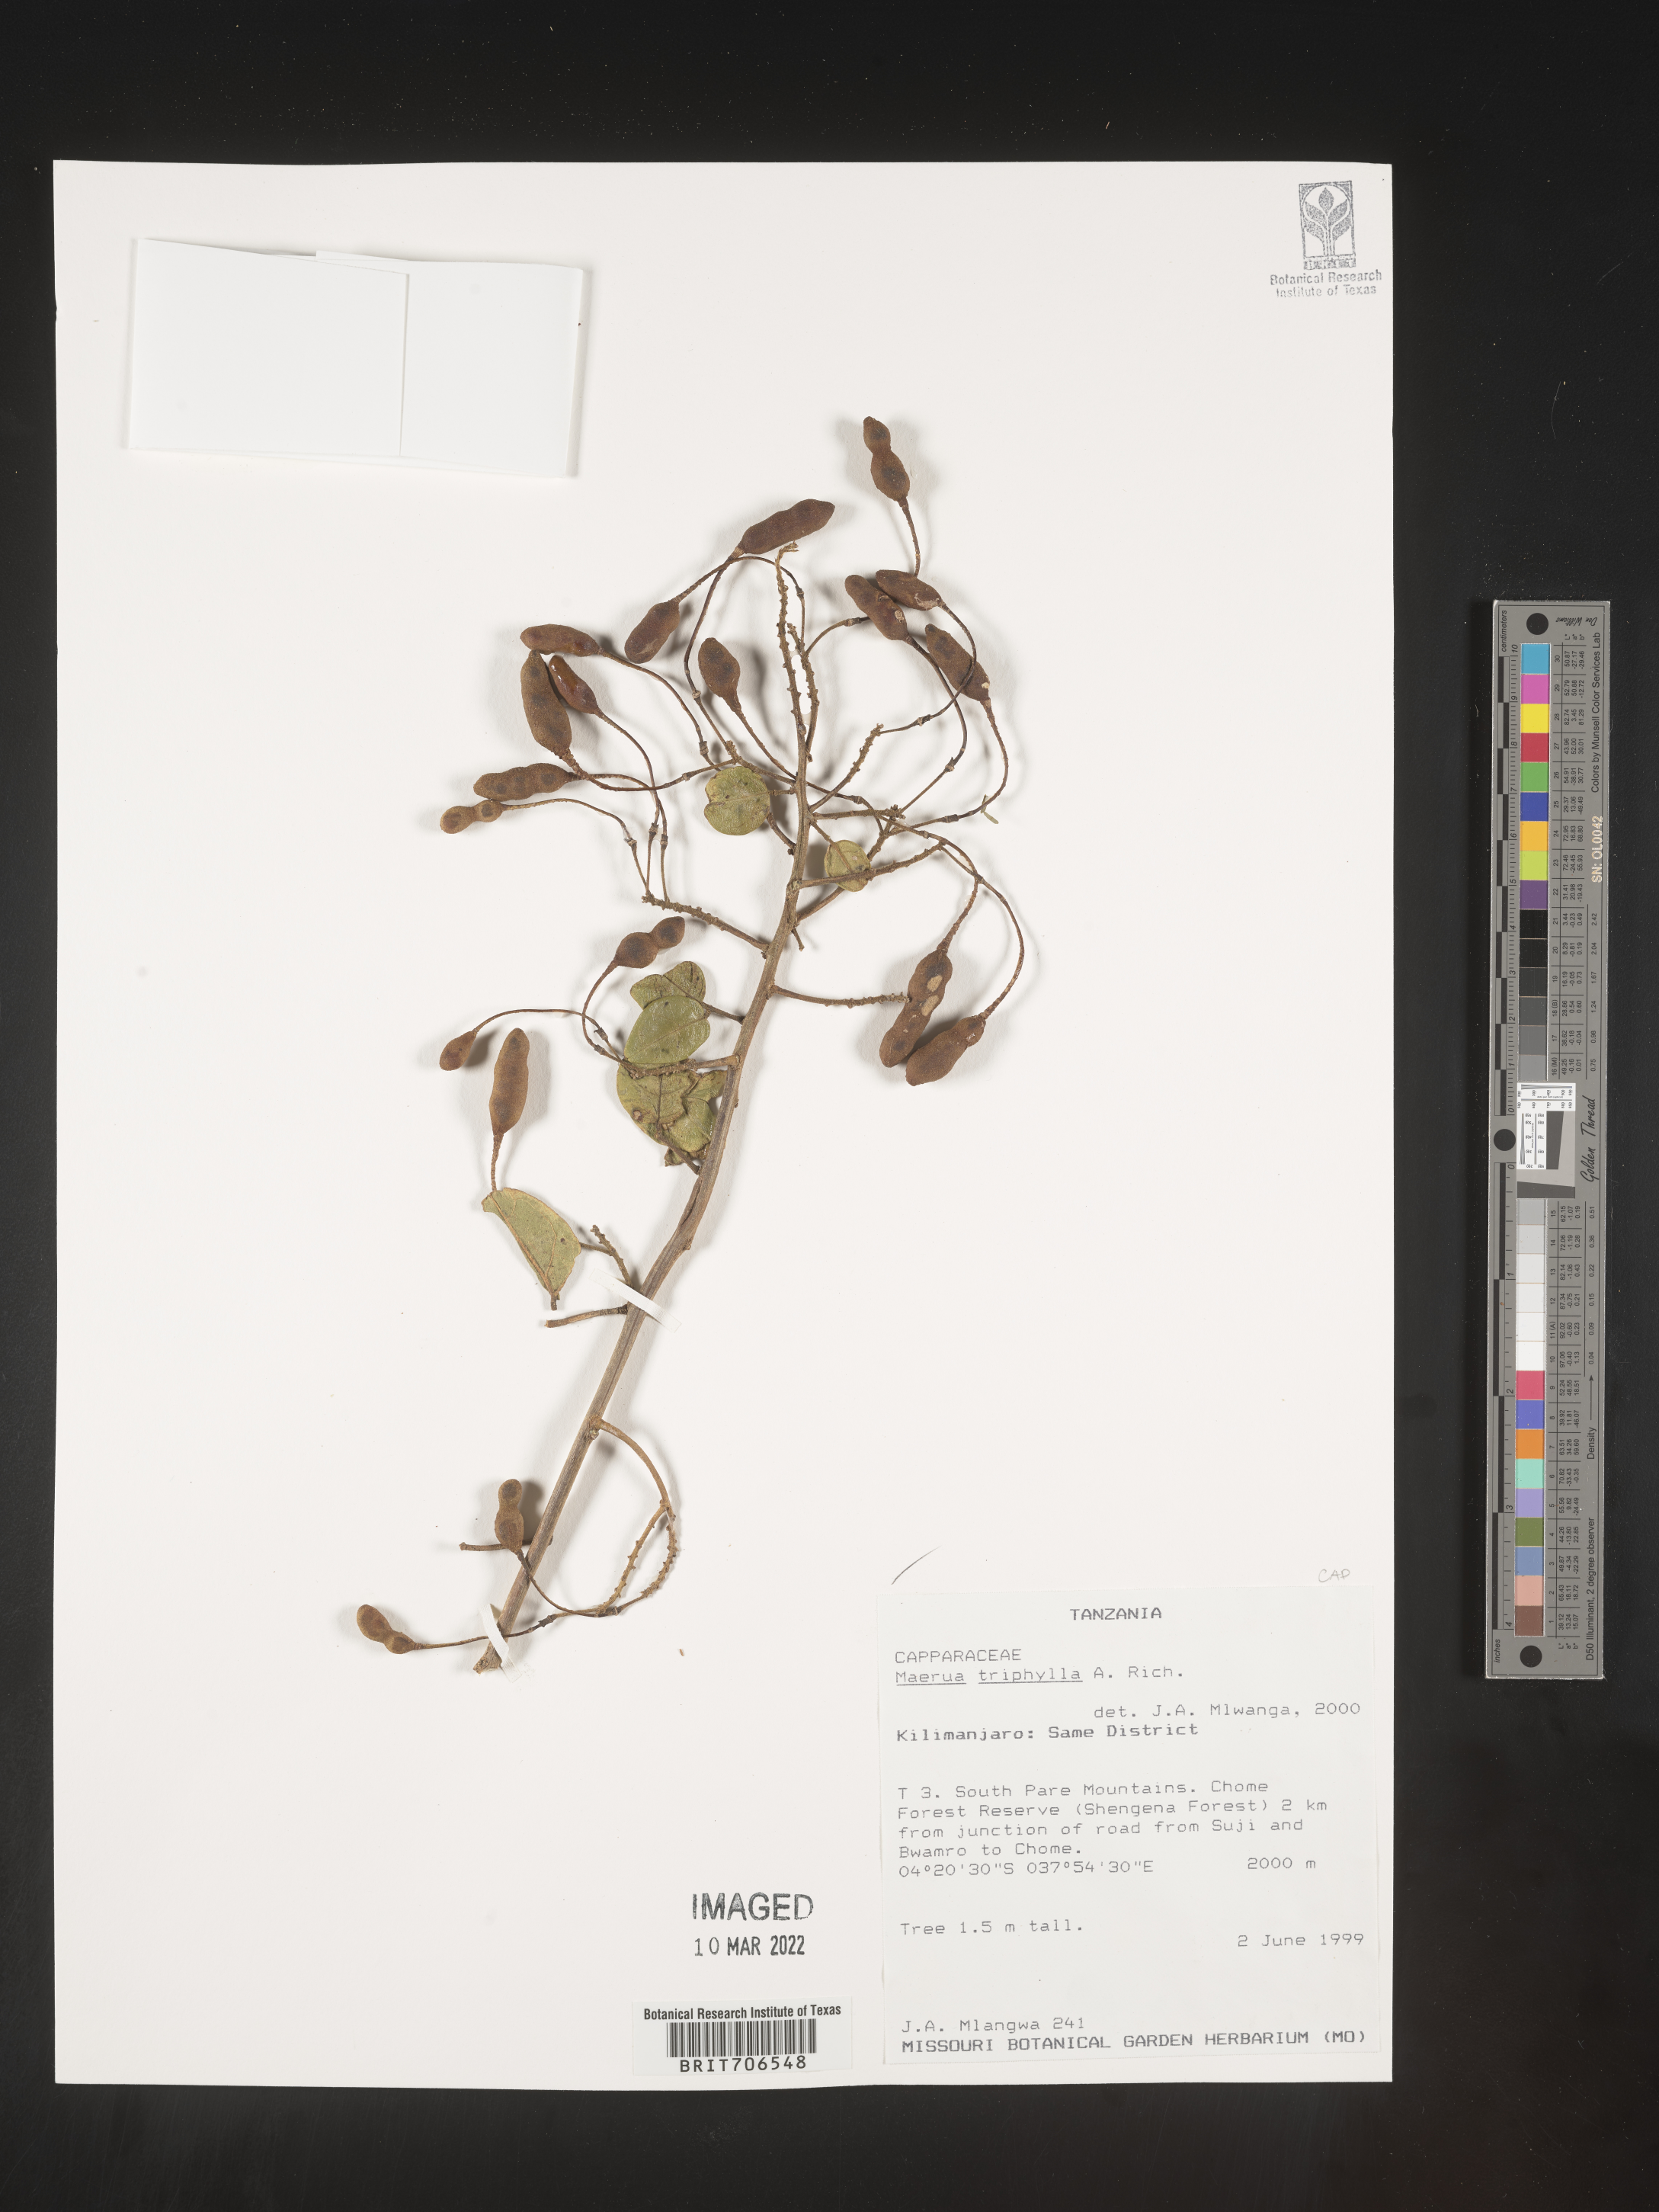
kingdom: Plantae
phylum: Tracheophyta
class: Magnoliopsida
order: Brassicales
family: Capparaceae
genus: Maerua
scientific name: Maerua
